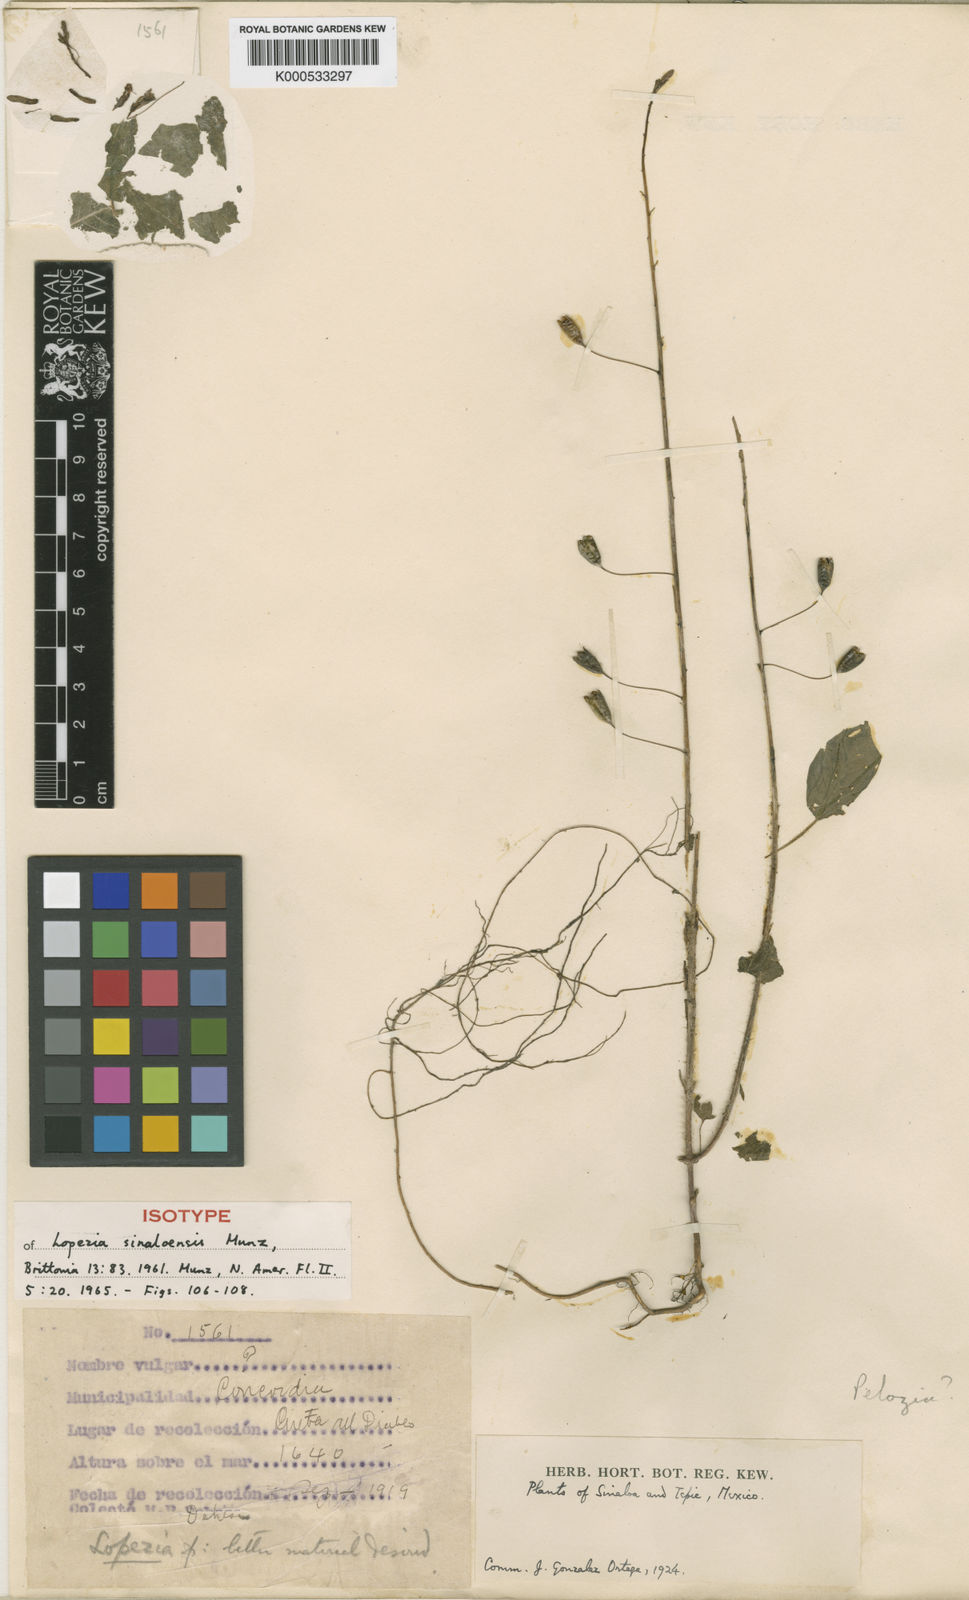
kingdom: Plantae
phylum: Tracheophyta
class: Magnoliopsida
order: Myrtales
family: Onagraceae
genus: Lopezia
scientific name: Lopezia sinaloensis
